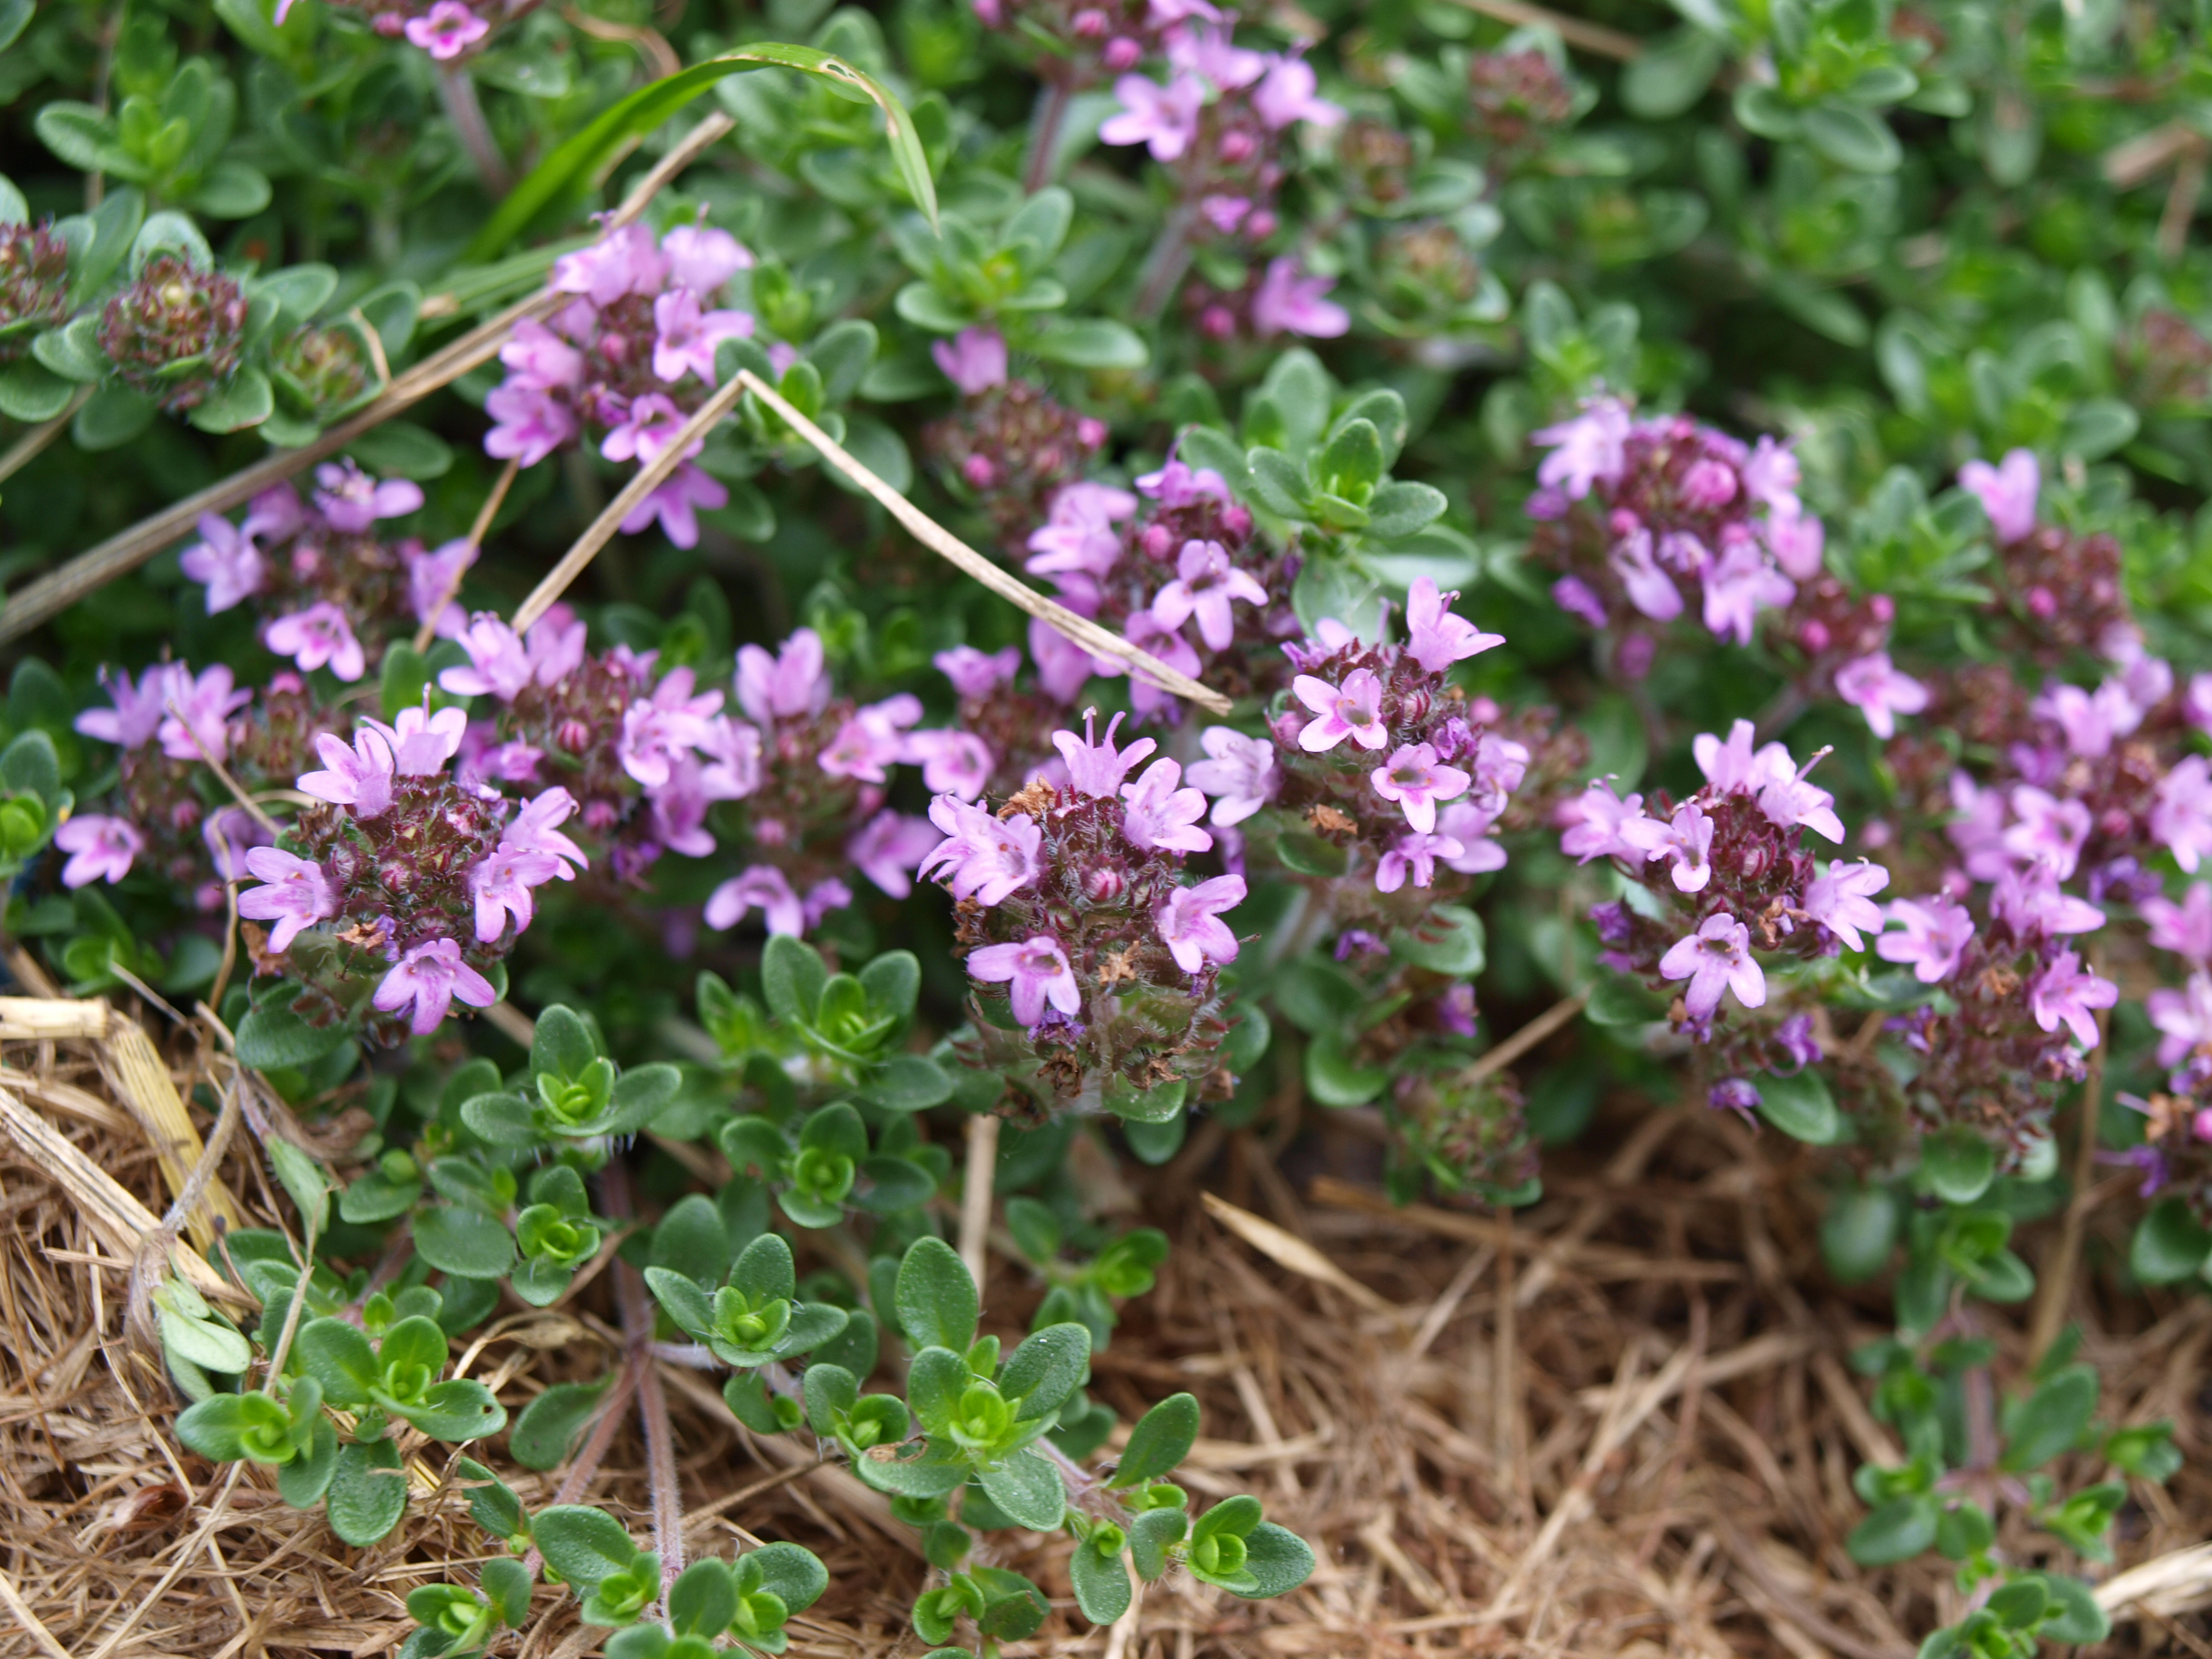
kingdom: Plantae
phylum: Tracheophyta
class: Magnoliopsida
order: Lamiales
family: Lamiaceae
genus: Thymus
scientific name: Thymus serpyllum
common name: Breckland thyme
